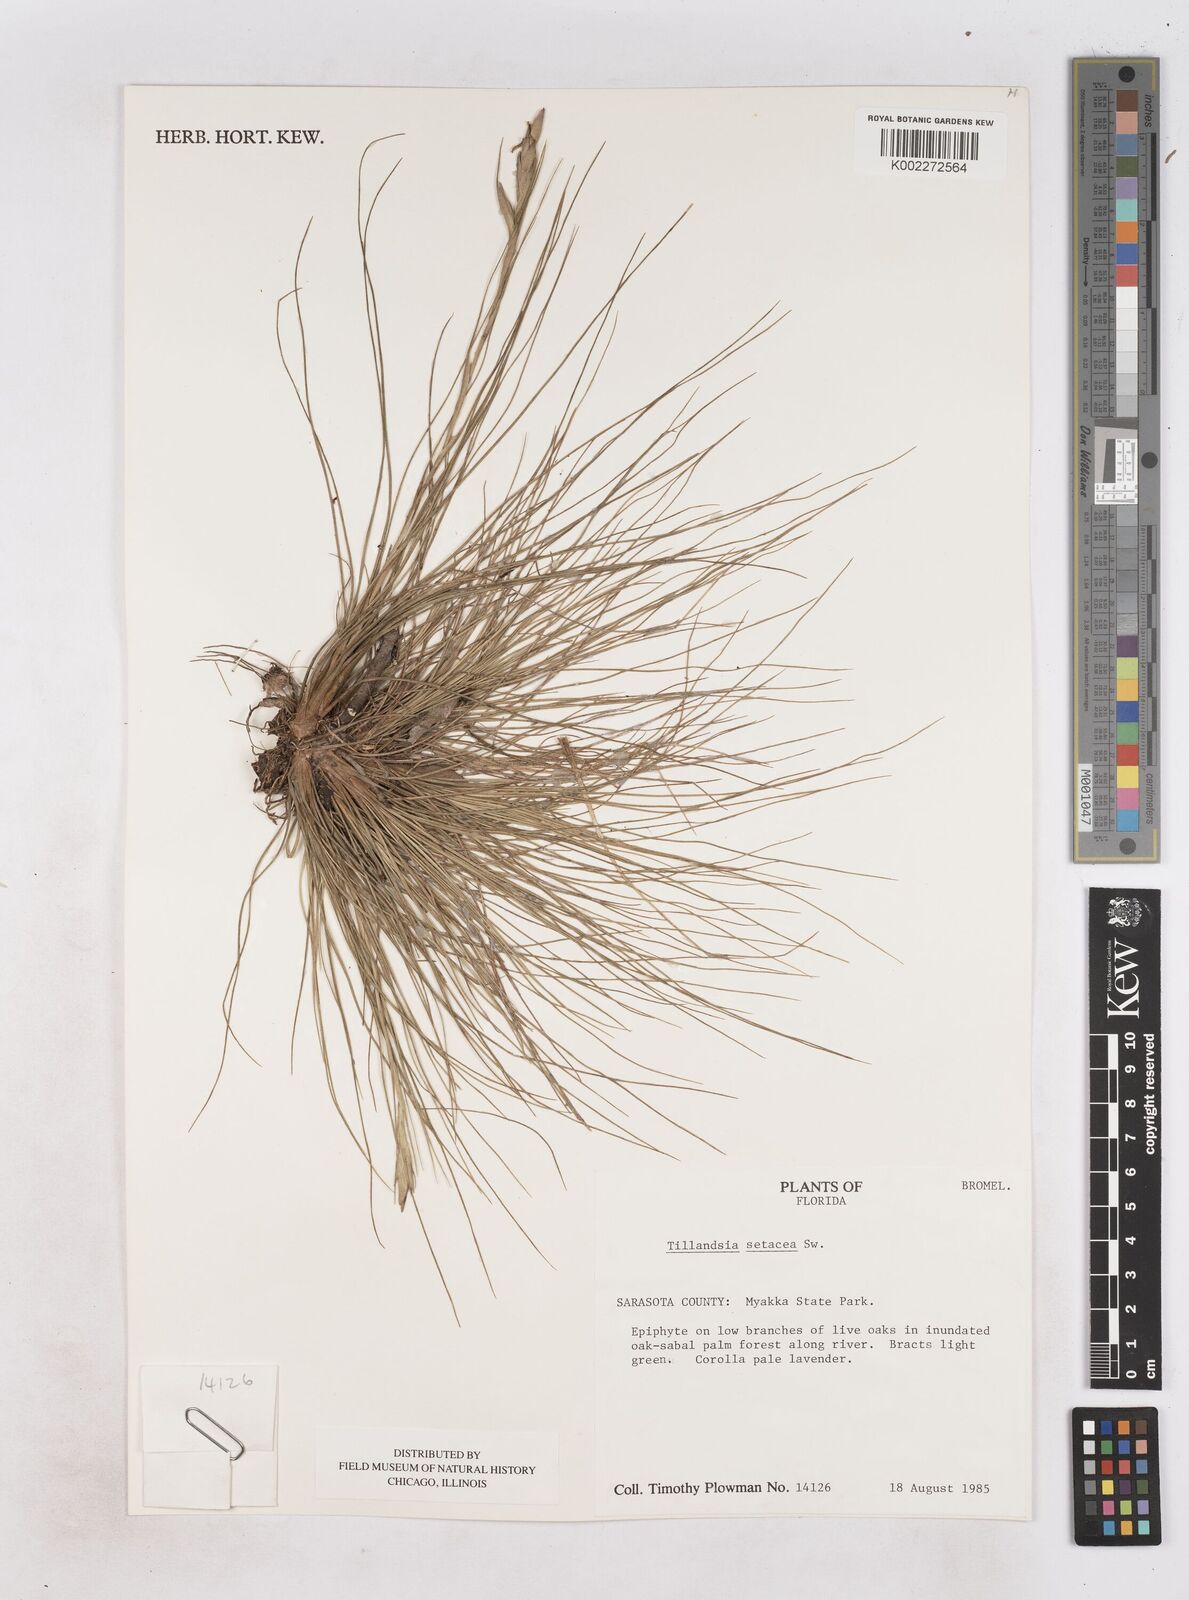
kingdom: Plantae
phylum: Tracheophyta
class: Liliopsida
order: Poales
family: Bromeliaceae
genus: Tillandsia
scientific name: Tillandsia
